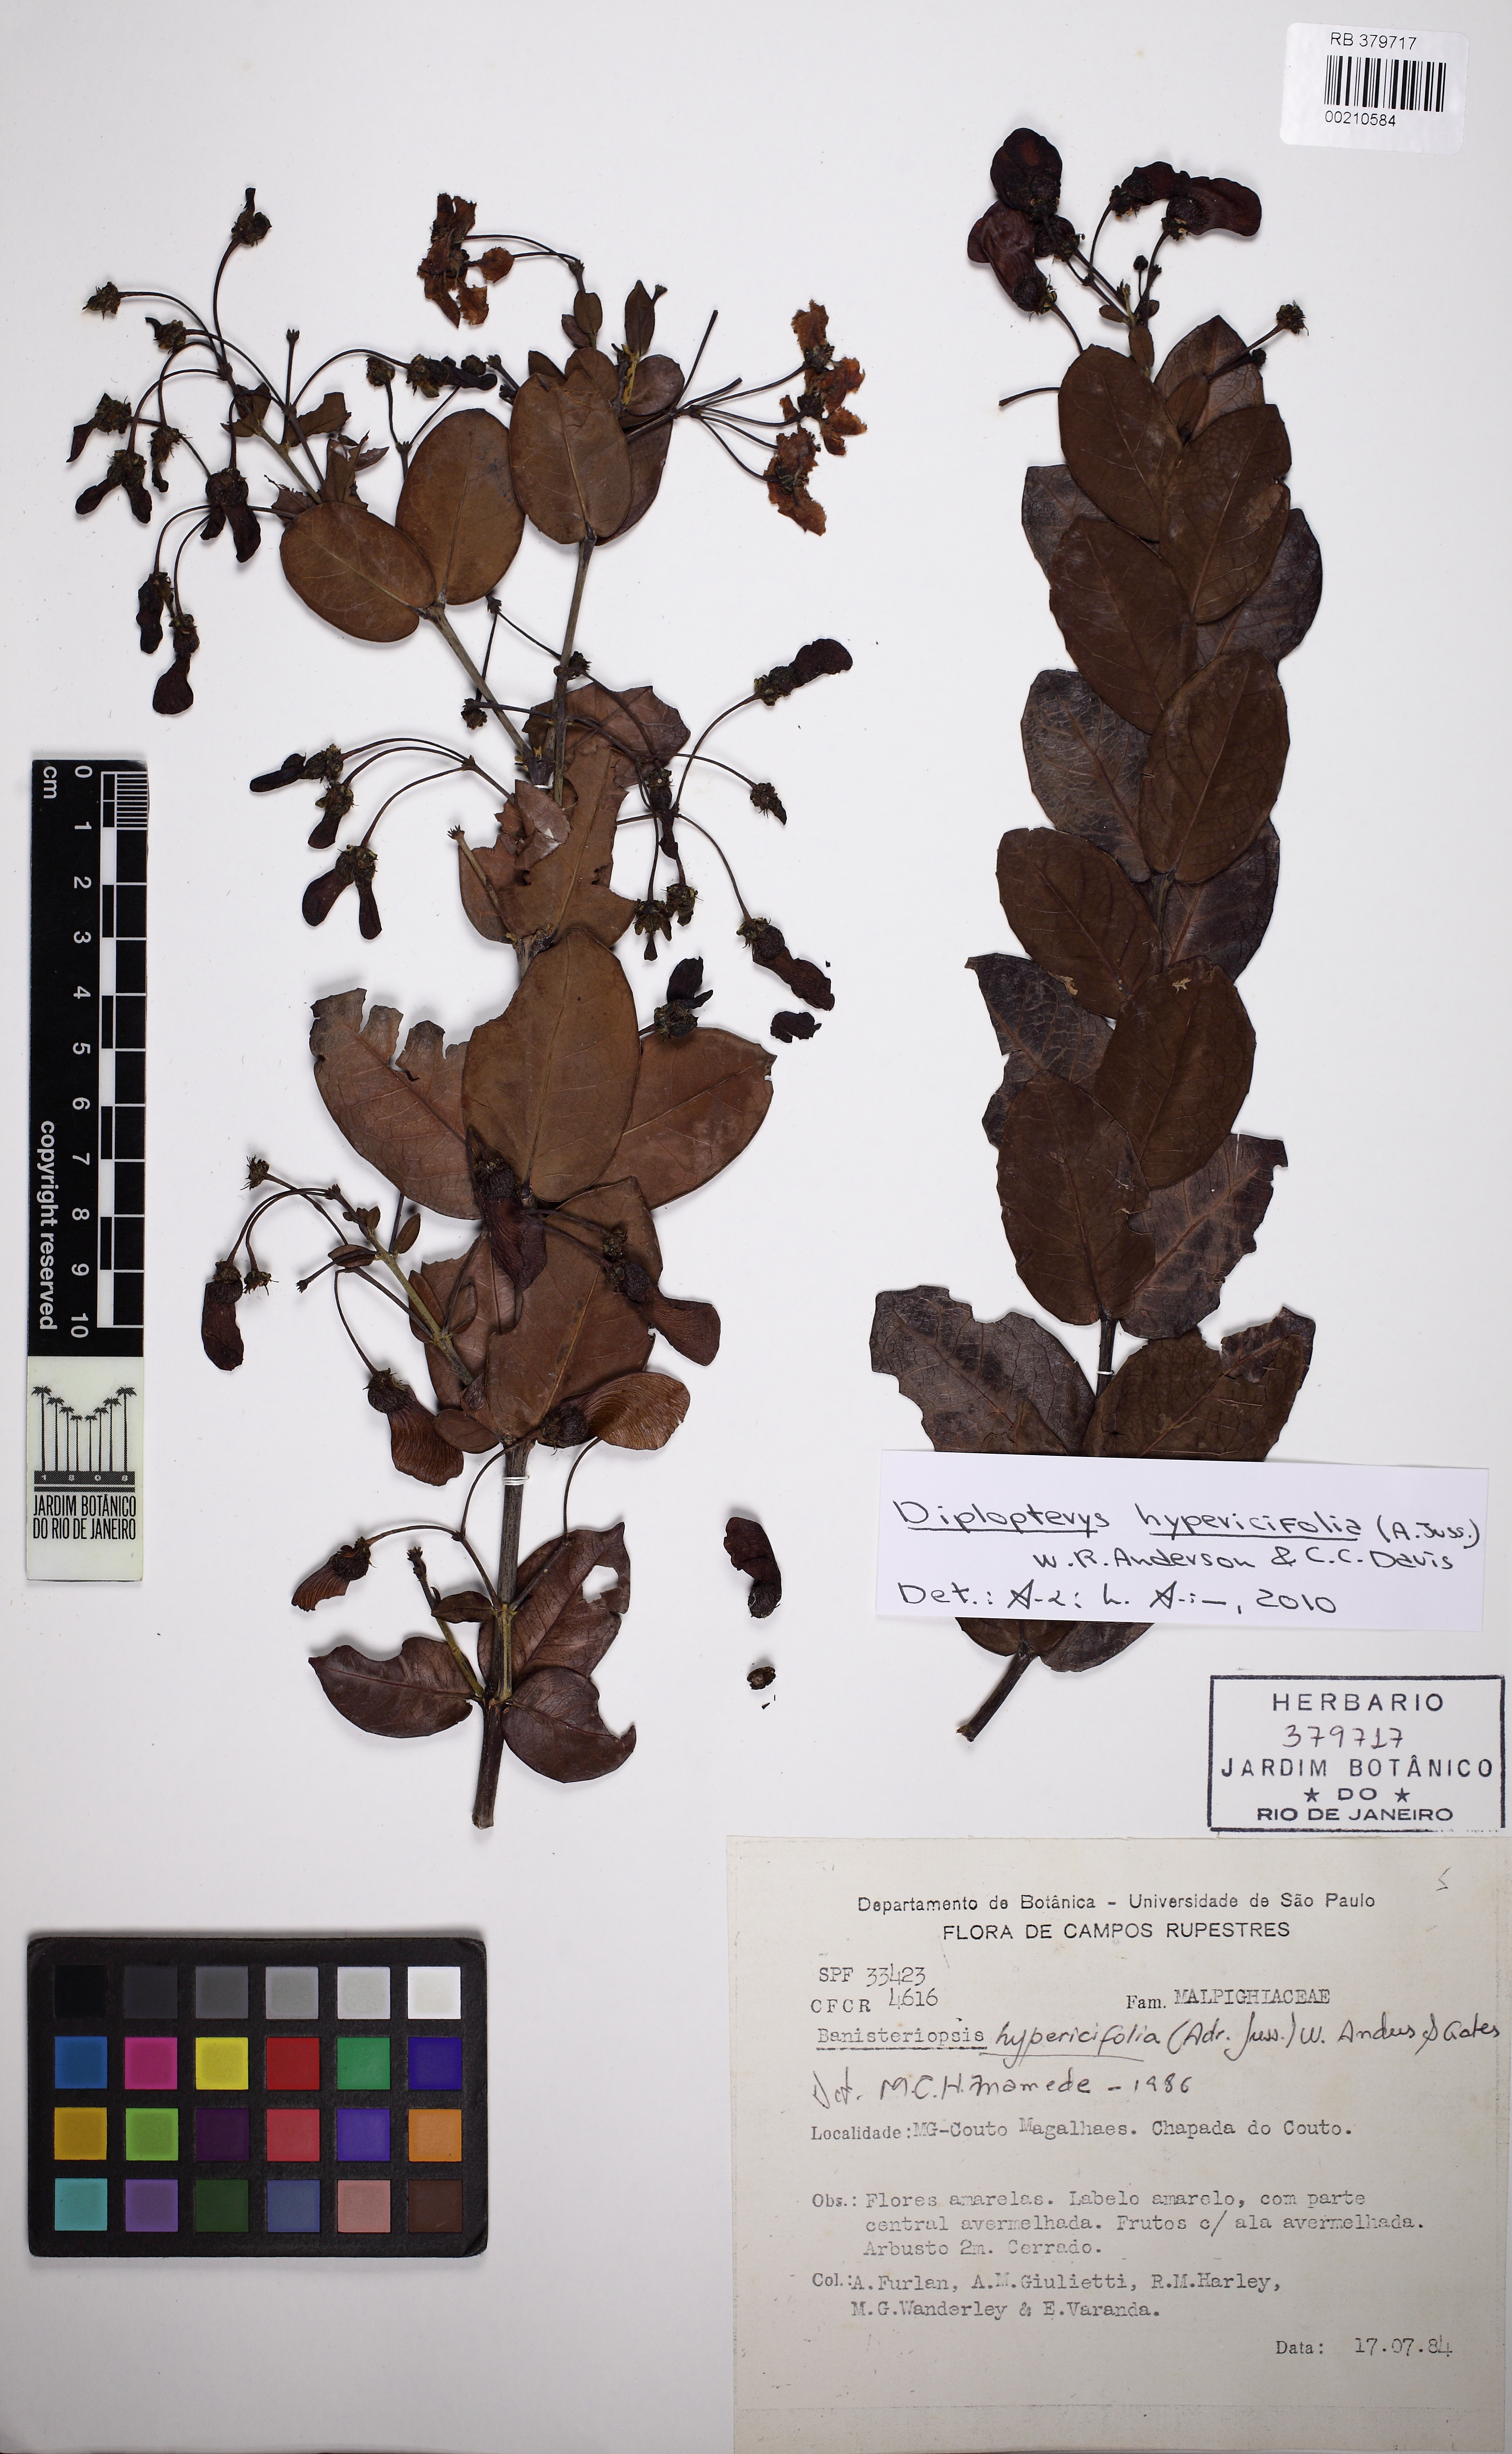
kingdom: Plantae
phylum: Tracheophyta
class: Magnoliopsida
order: Malpighiales
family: Malpighiaceae
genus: Diplopterys
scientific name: Diplopterys hypericifolia
